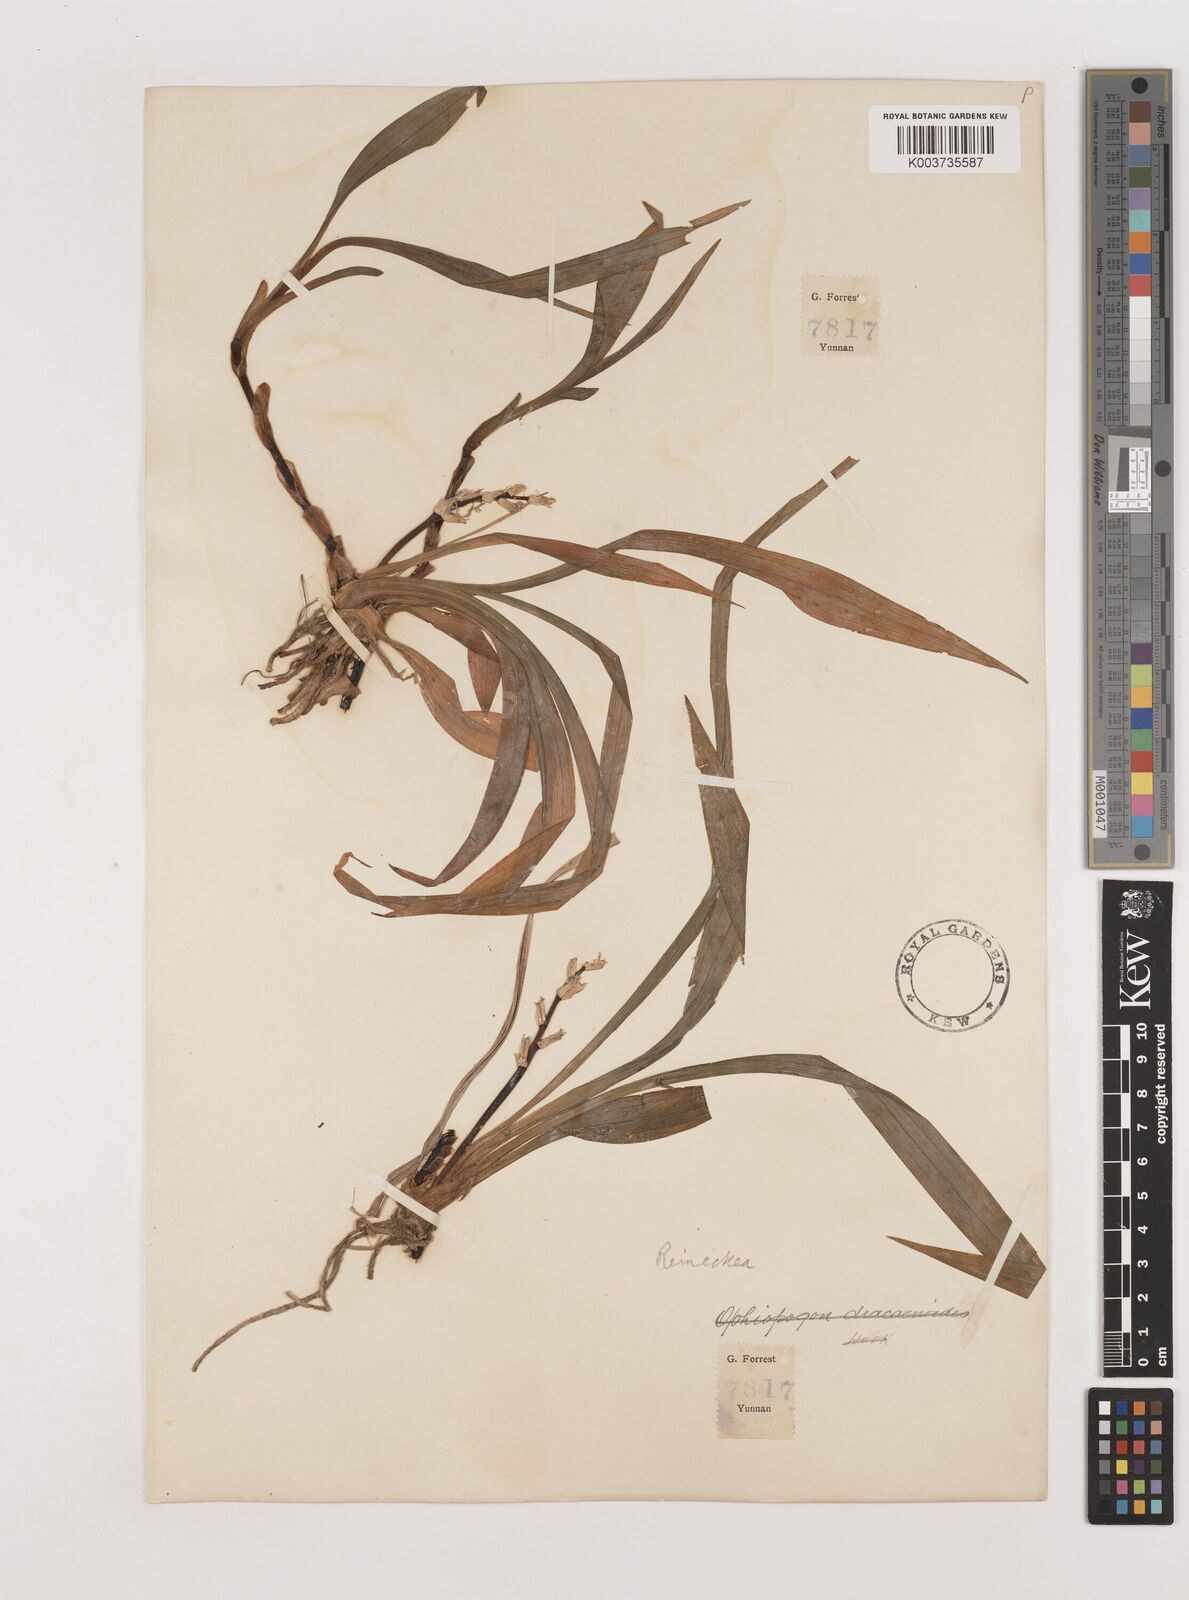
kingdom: Plantae
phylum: Tracheophyta
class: Liliopsida
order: Asparagales
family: Asparagaceae
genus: Reineckea
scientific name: Reineckea carnea
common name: Reineckea
